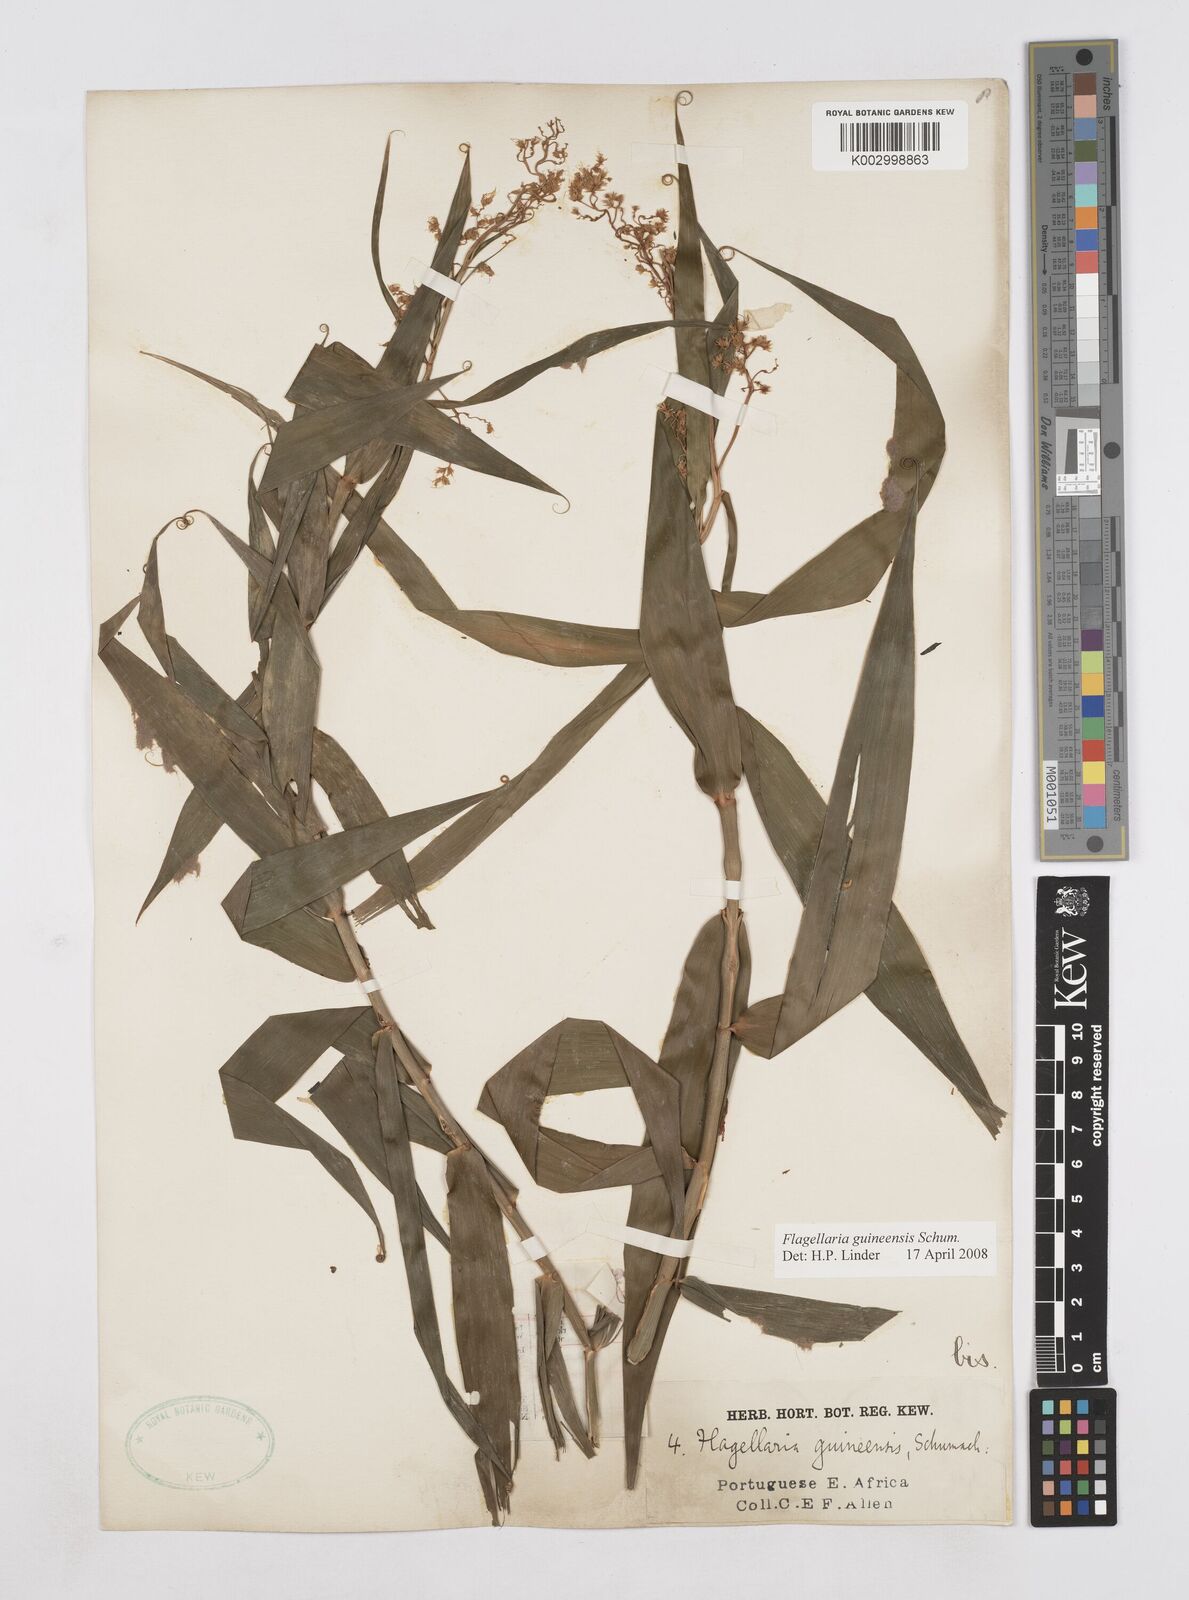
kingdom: Plantae
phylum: Tracheophyta
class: Liliopsida
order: Poales
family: Flagellariaceae
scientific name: Flagellariaceae
